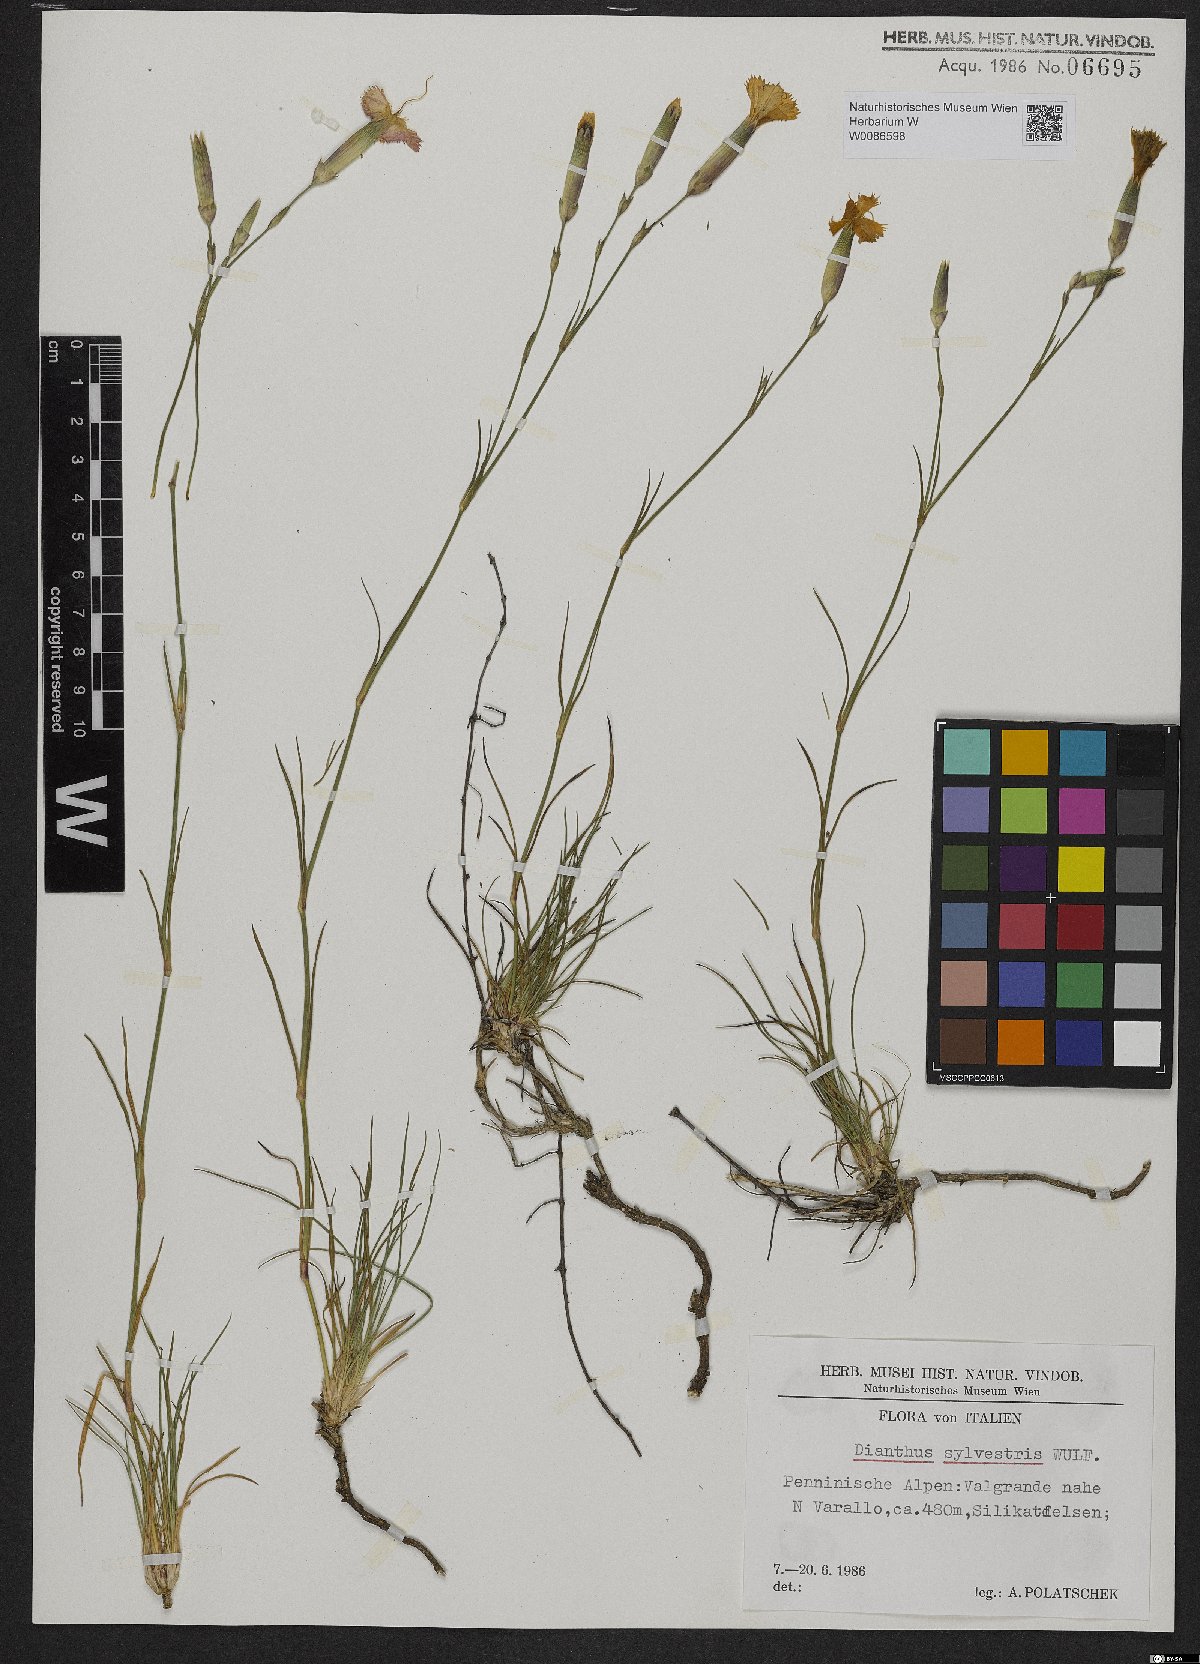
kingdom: Plantae
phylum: Tracheophyta
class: Magnoliopsida
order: Caryophyllales
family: Caryophyllaceae
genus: Dianthus
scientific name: Dianthus sylvestris
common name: Wood pink
